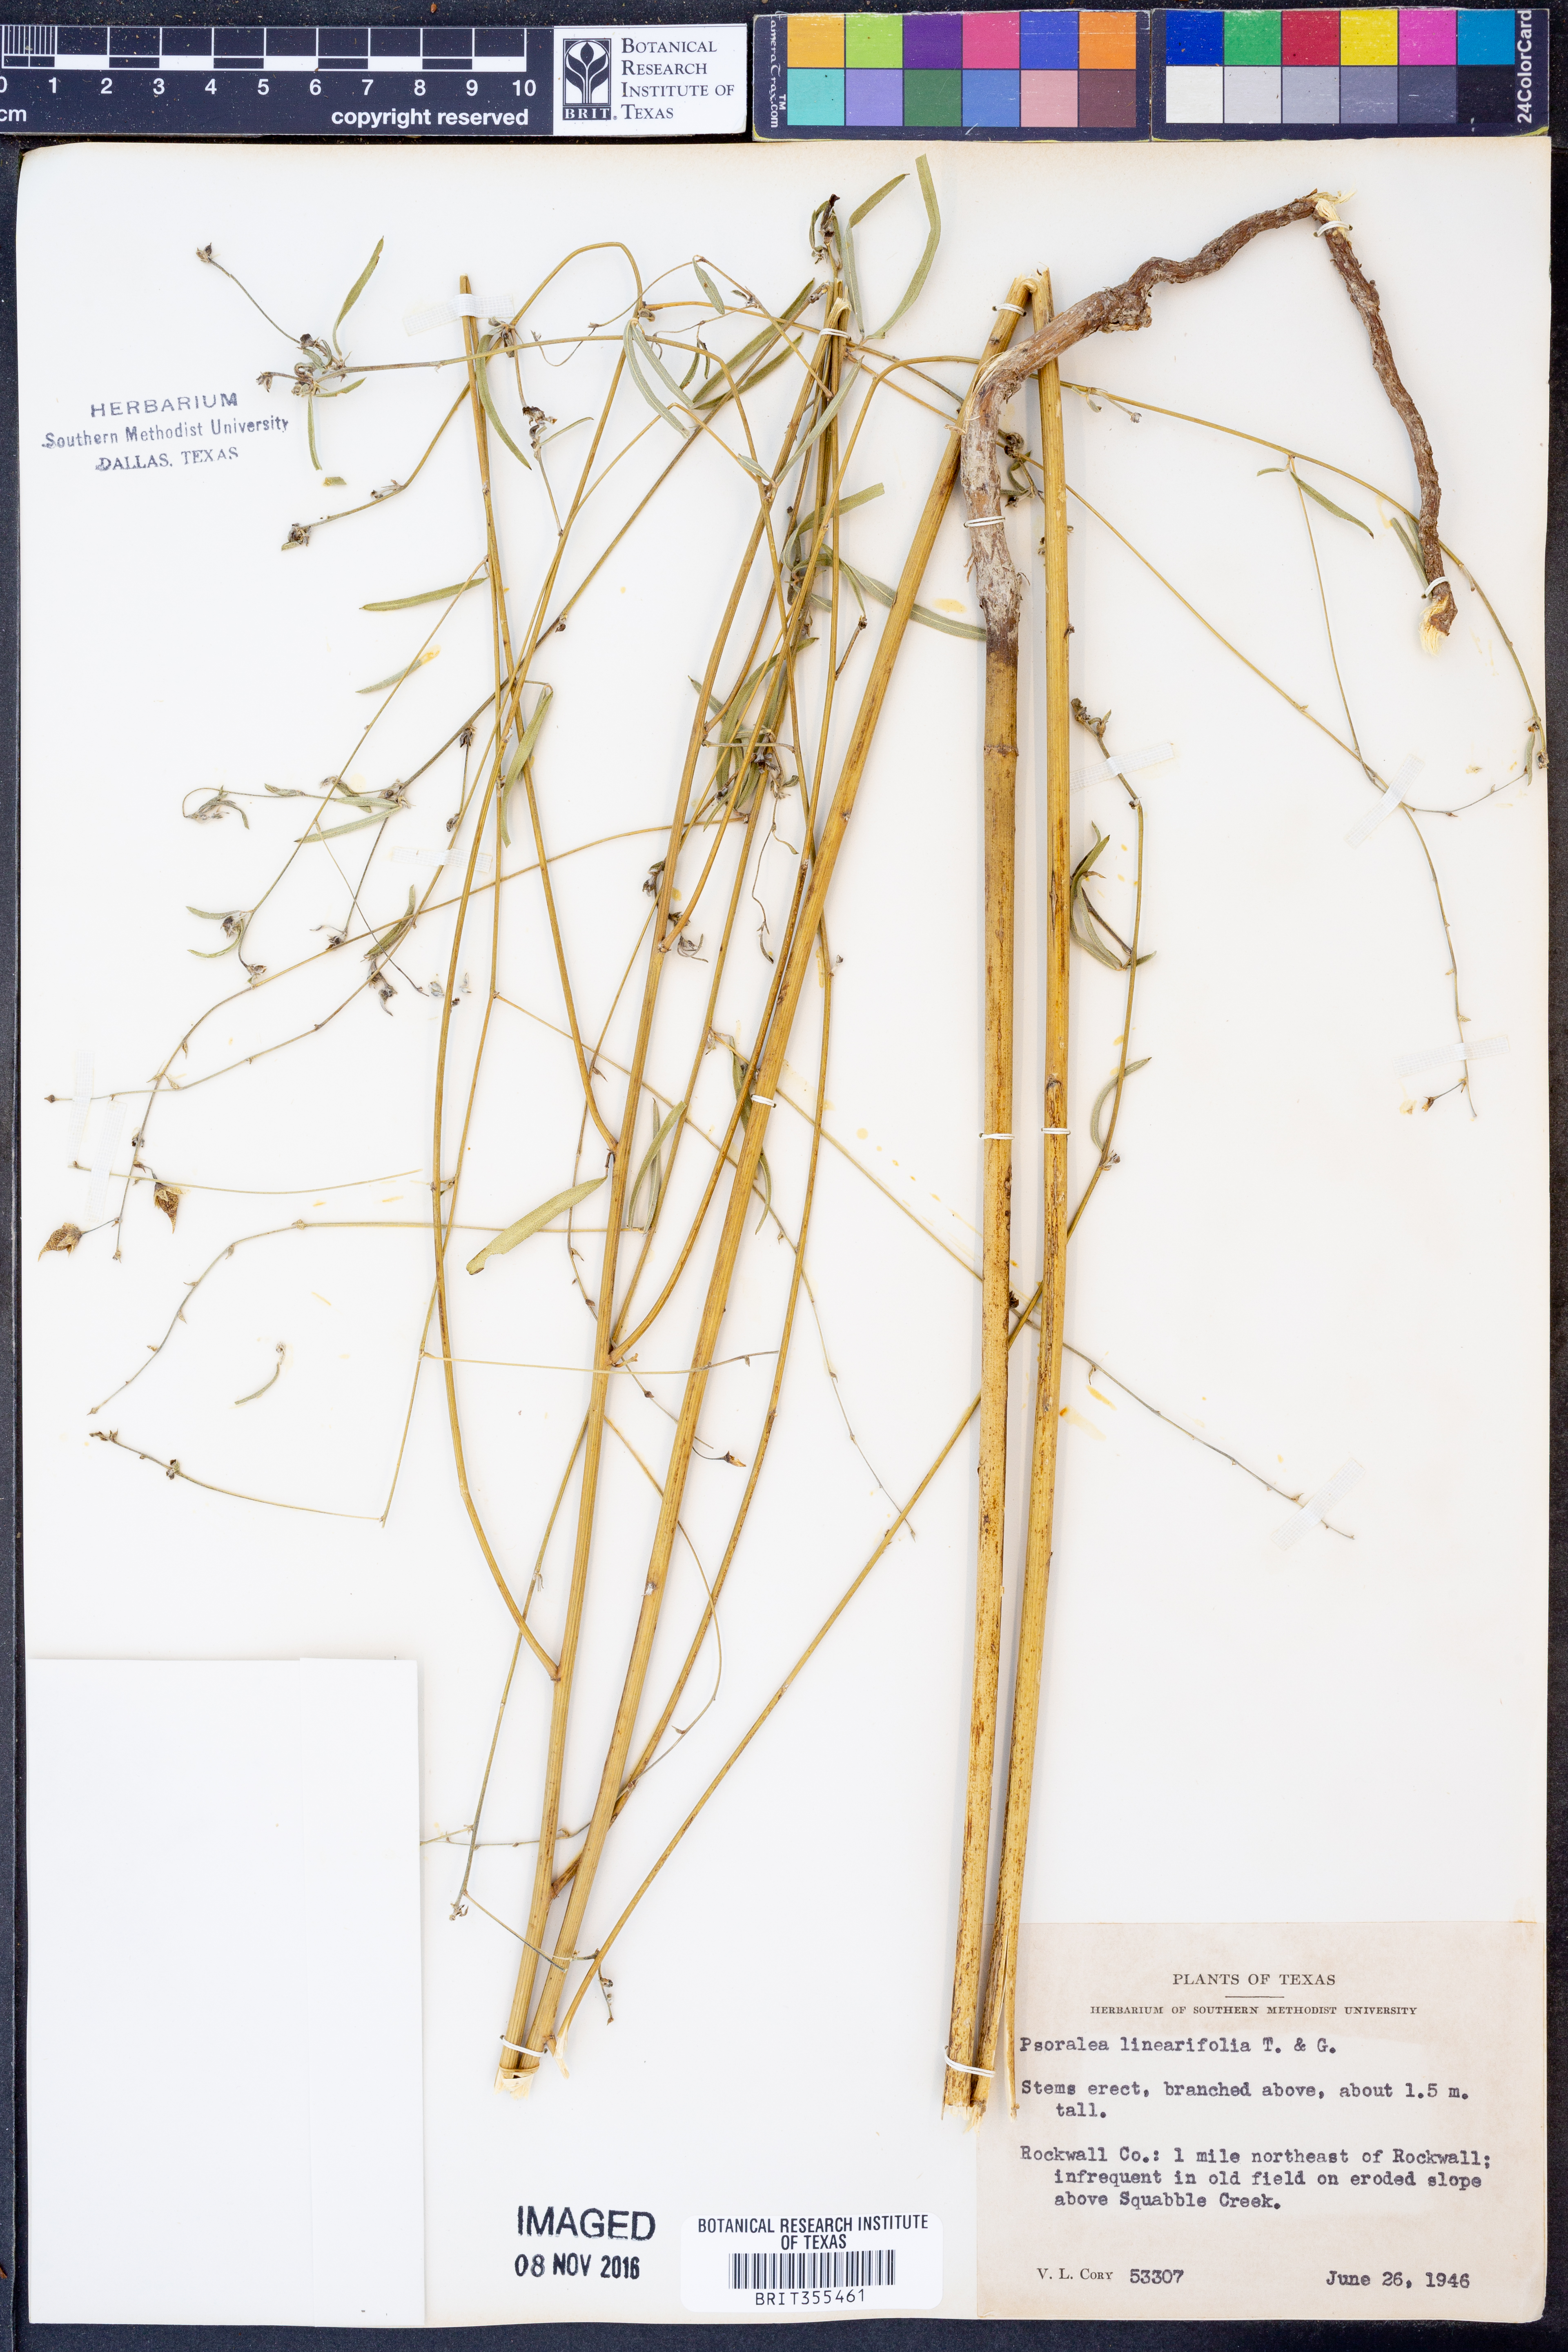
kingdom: Plantae
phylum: Tracheophyta
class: Magnoliopsida
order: Fabales
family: Fabaceae
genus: Pediomelum
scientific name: Pediomelum linearifolium
